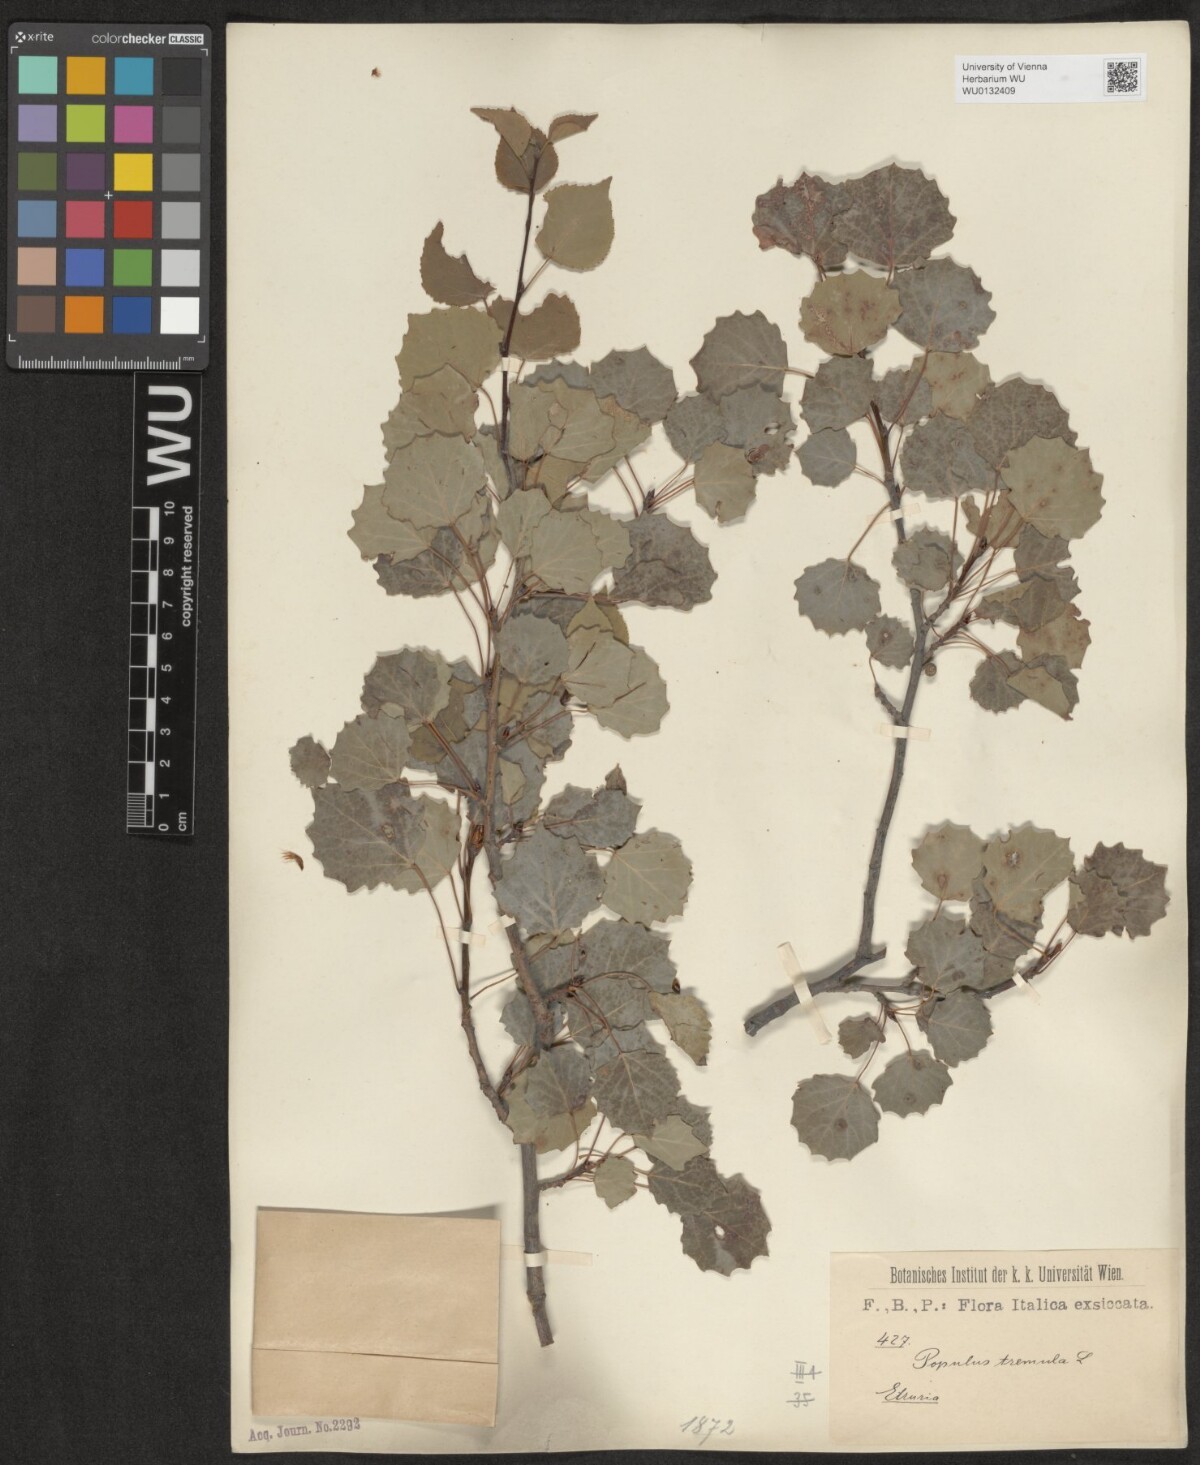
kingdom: Plantae
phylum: Tracheophyta
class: Magnoliopsida
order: Malpighiales
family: Salicaceae
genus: Populus
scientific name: Populus tremula
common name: European aspen
